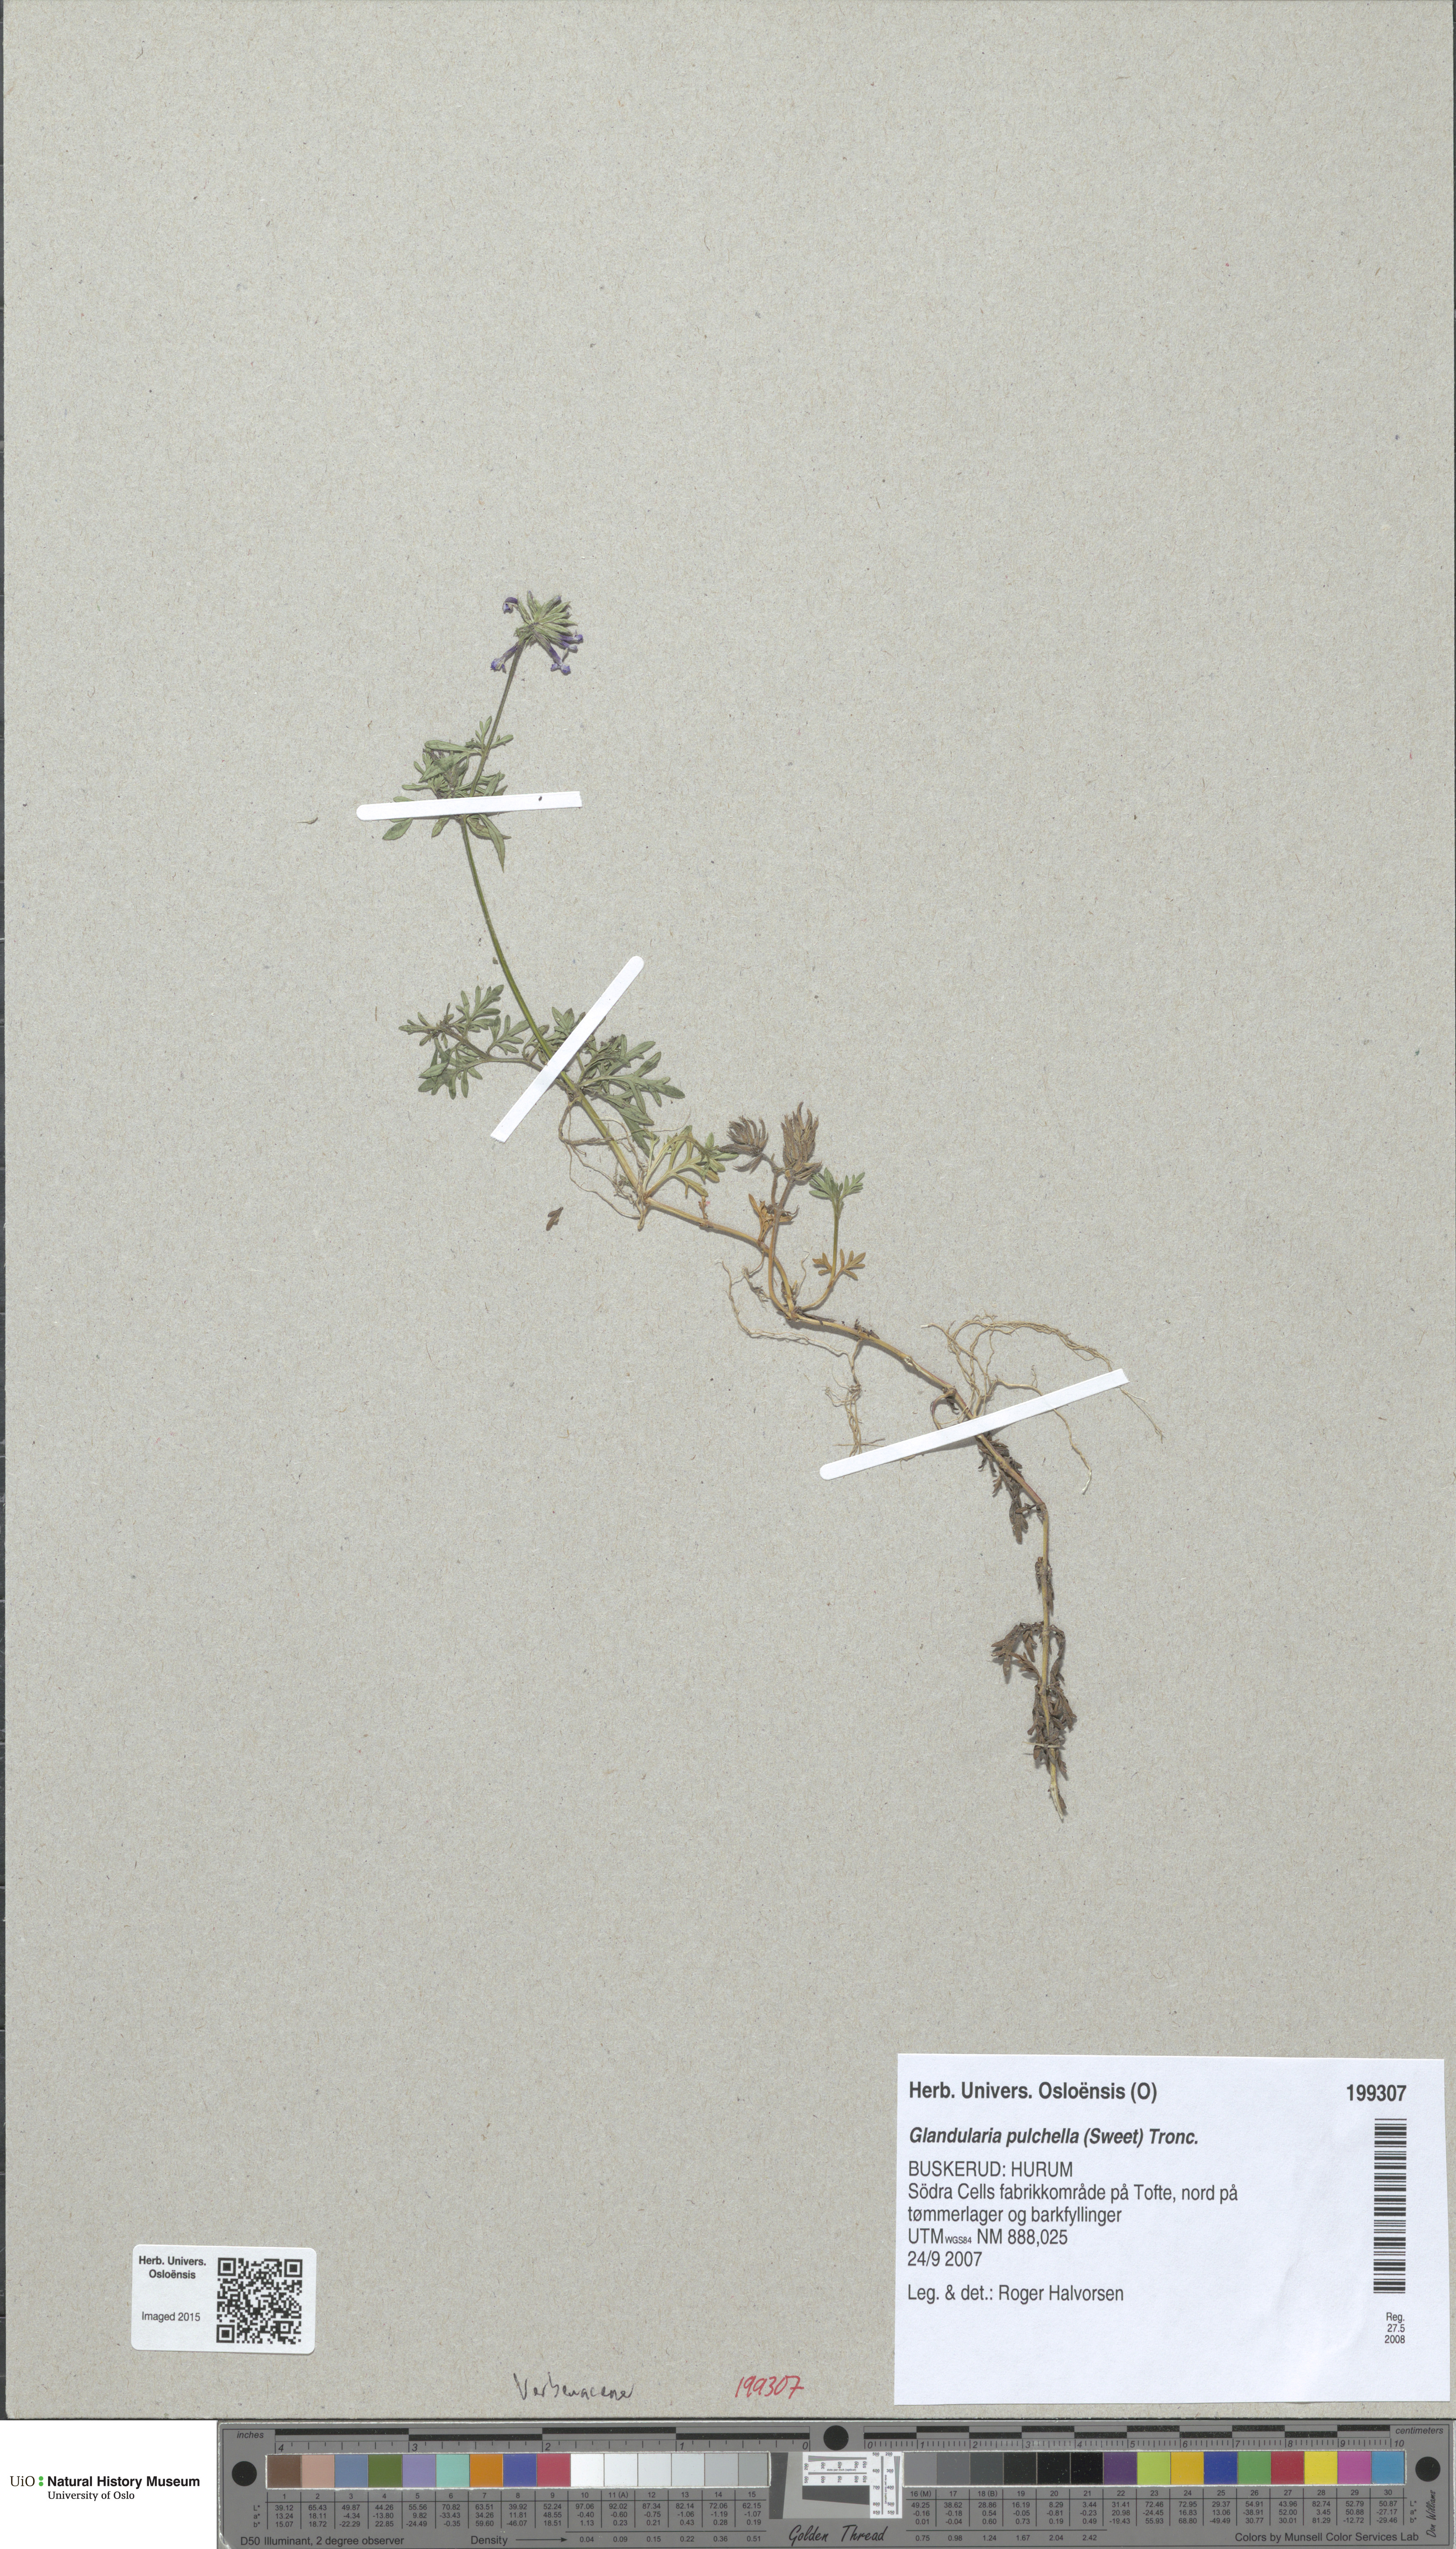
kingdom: Plantae
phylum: Tracheophyta
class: Magnoliopsida
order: Lamiales
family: Verbenaceae
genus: Verbena
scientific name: Verbena tenera
